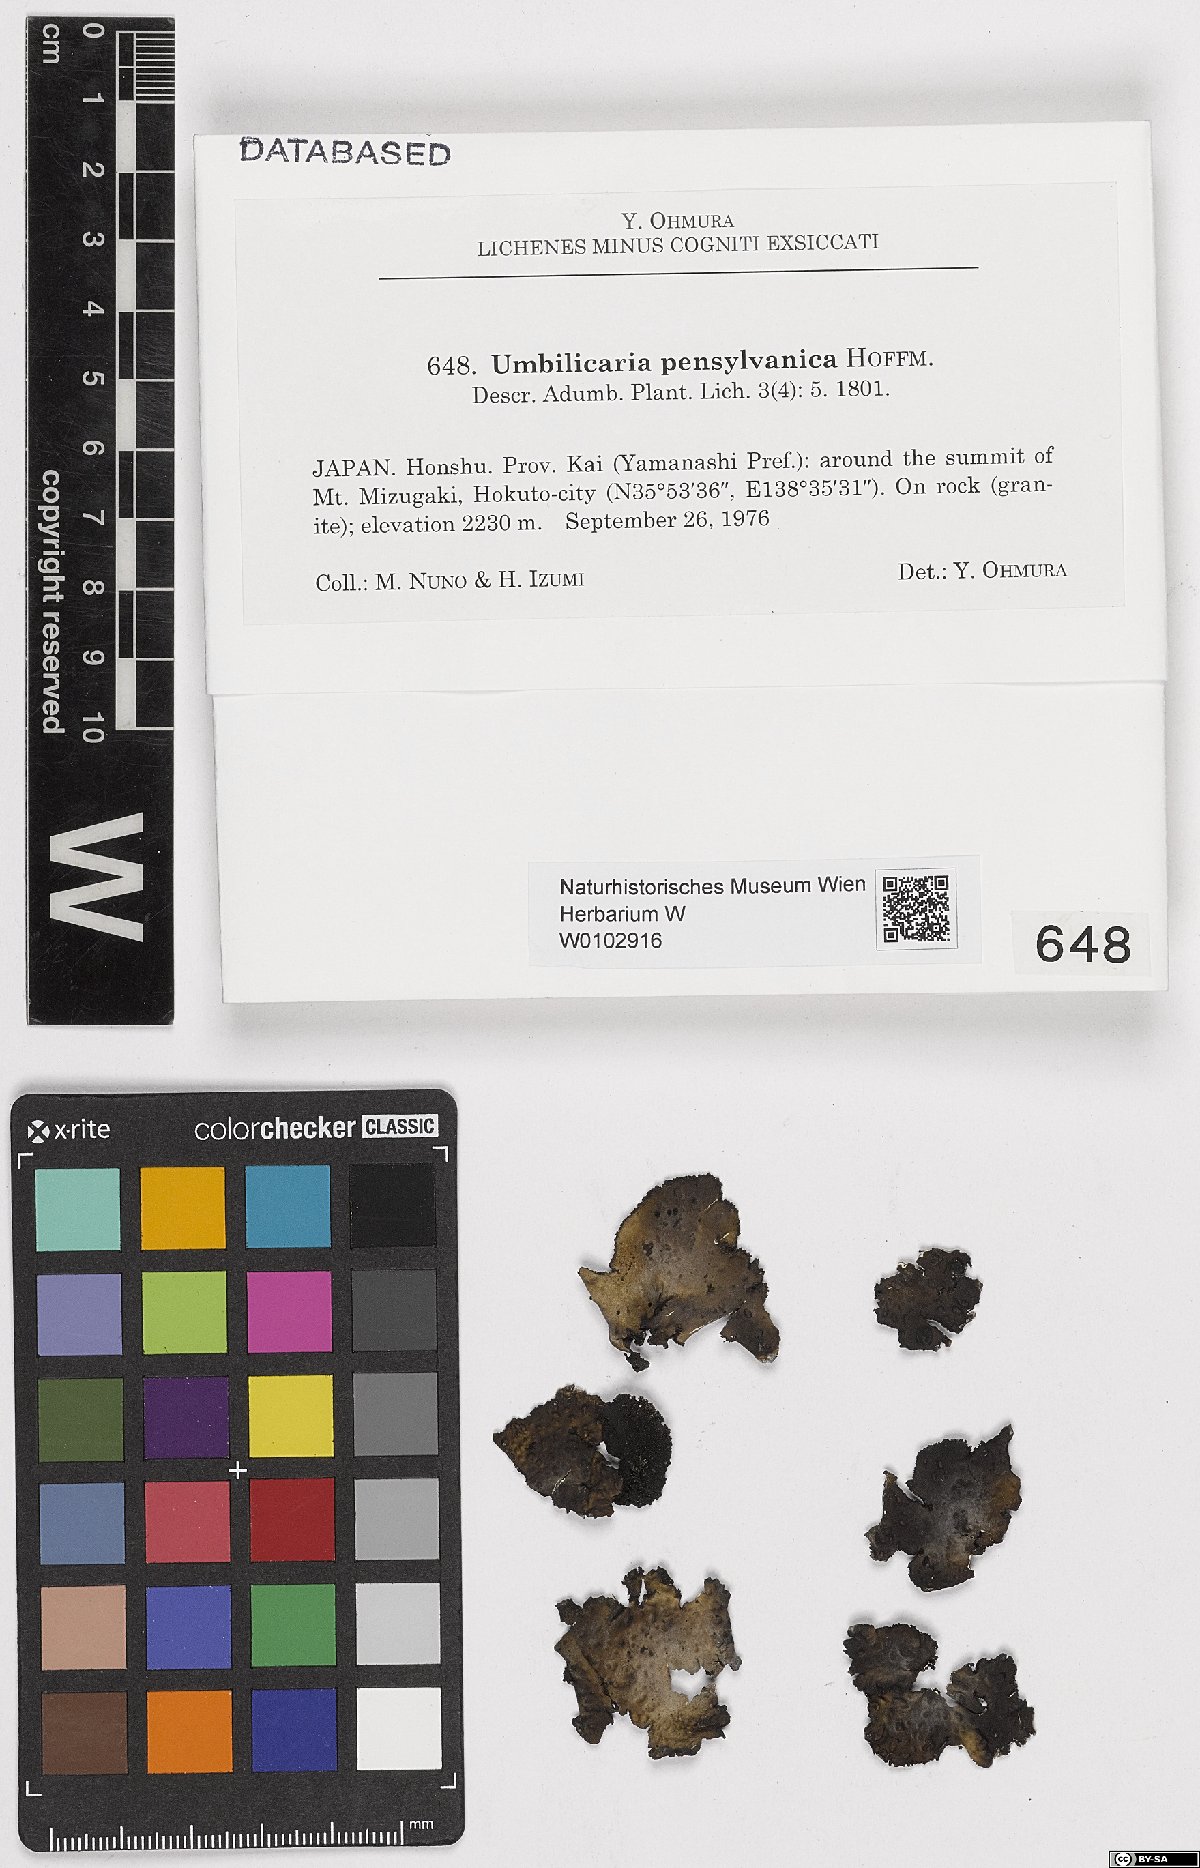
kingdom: Fungi
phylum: Ascomycota
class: Lecanoromycetes
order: Umbilicariales
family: Umbilicariaceae
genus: Lasallia
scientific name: Lasallia pensylvanica
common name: Blackened toadskin lichen
